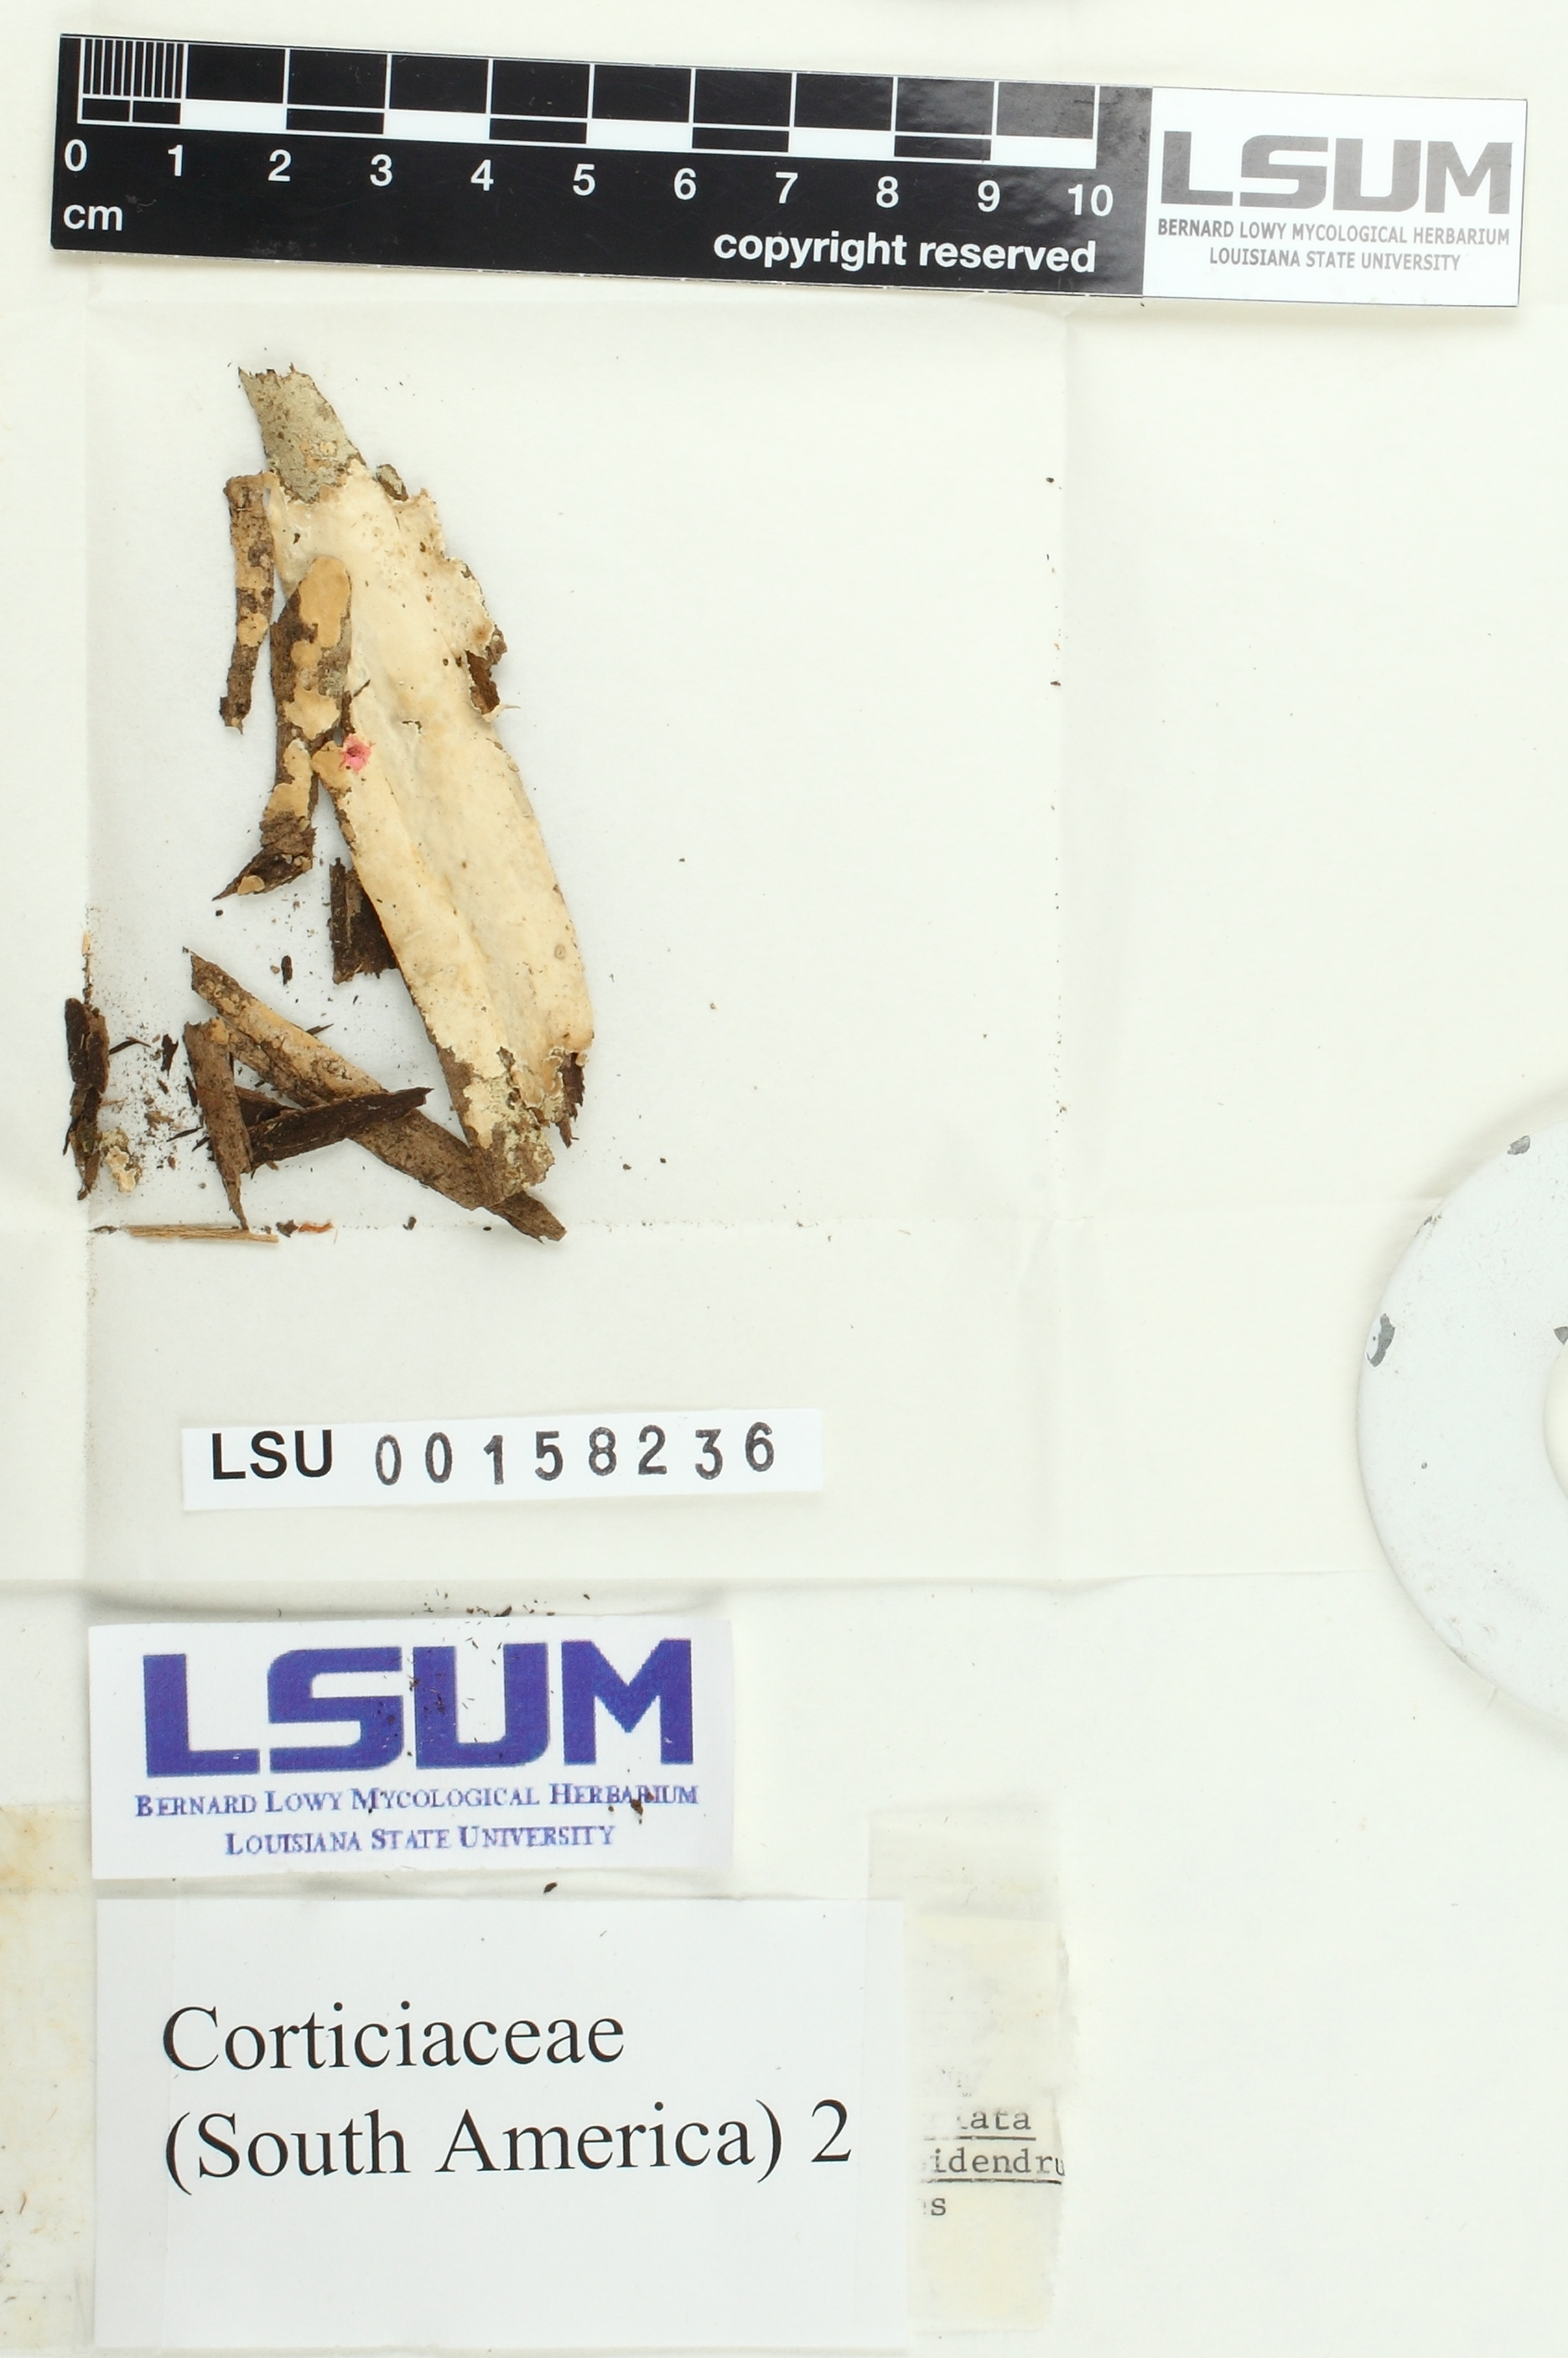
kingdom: Fungi
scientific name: Fungi
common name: Fungi
